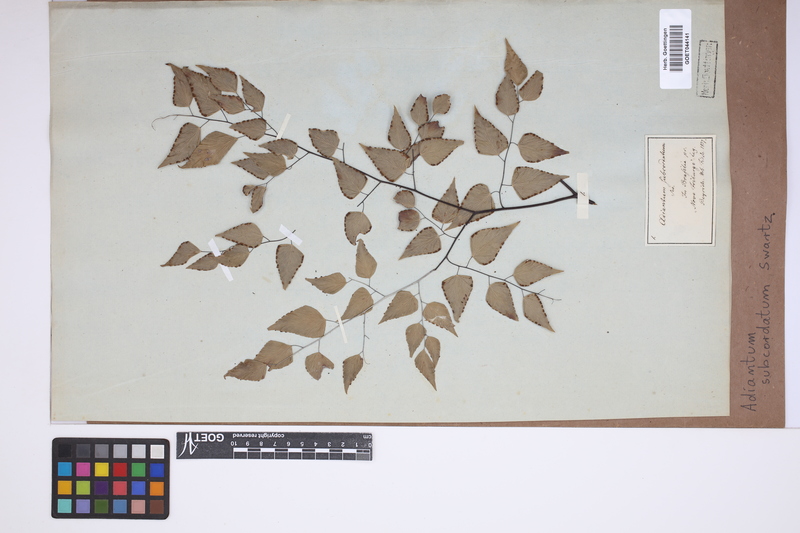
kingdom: Plantae
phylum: Tracheophyta
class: Polypodiopsida
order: Polypodiales
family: Pteridaceae
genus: Adiantum
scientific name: Adiantum subcordatum
